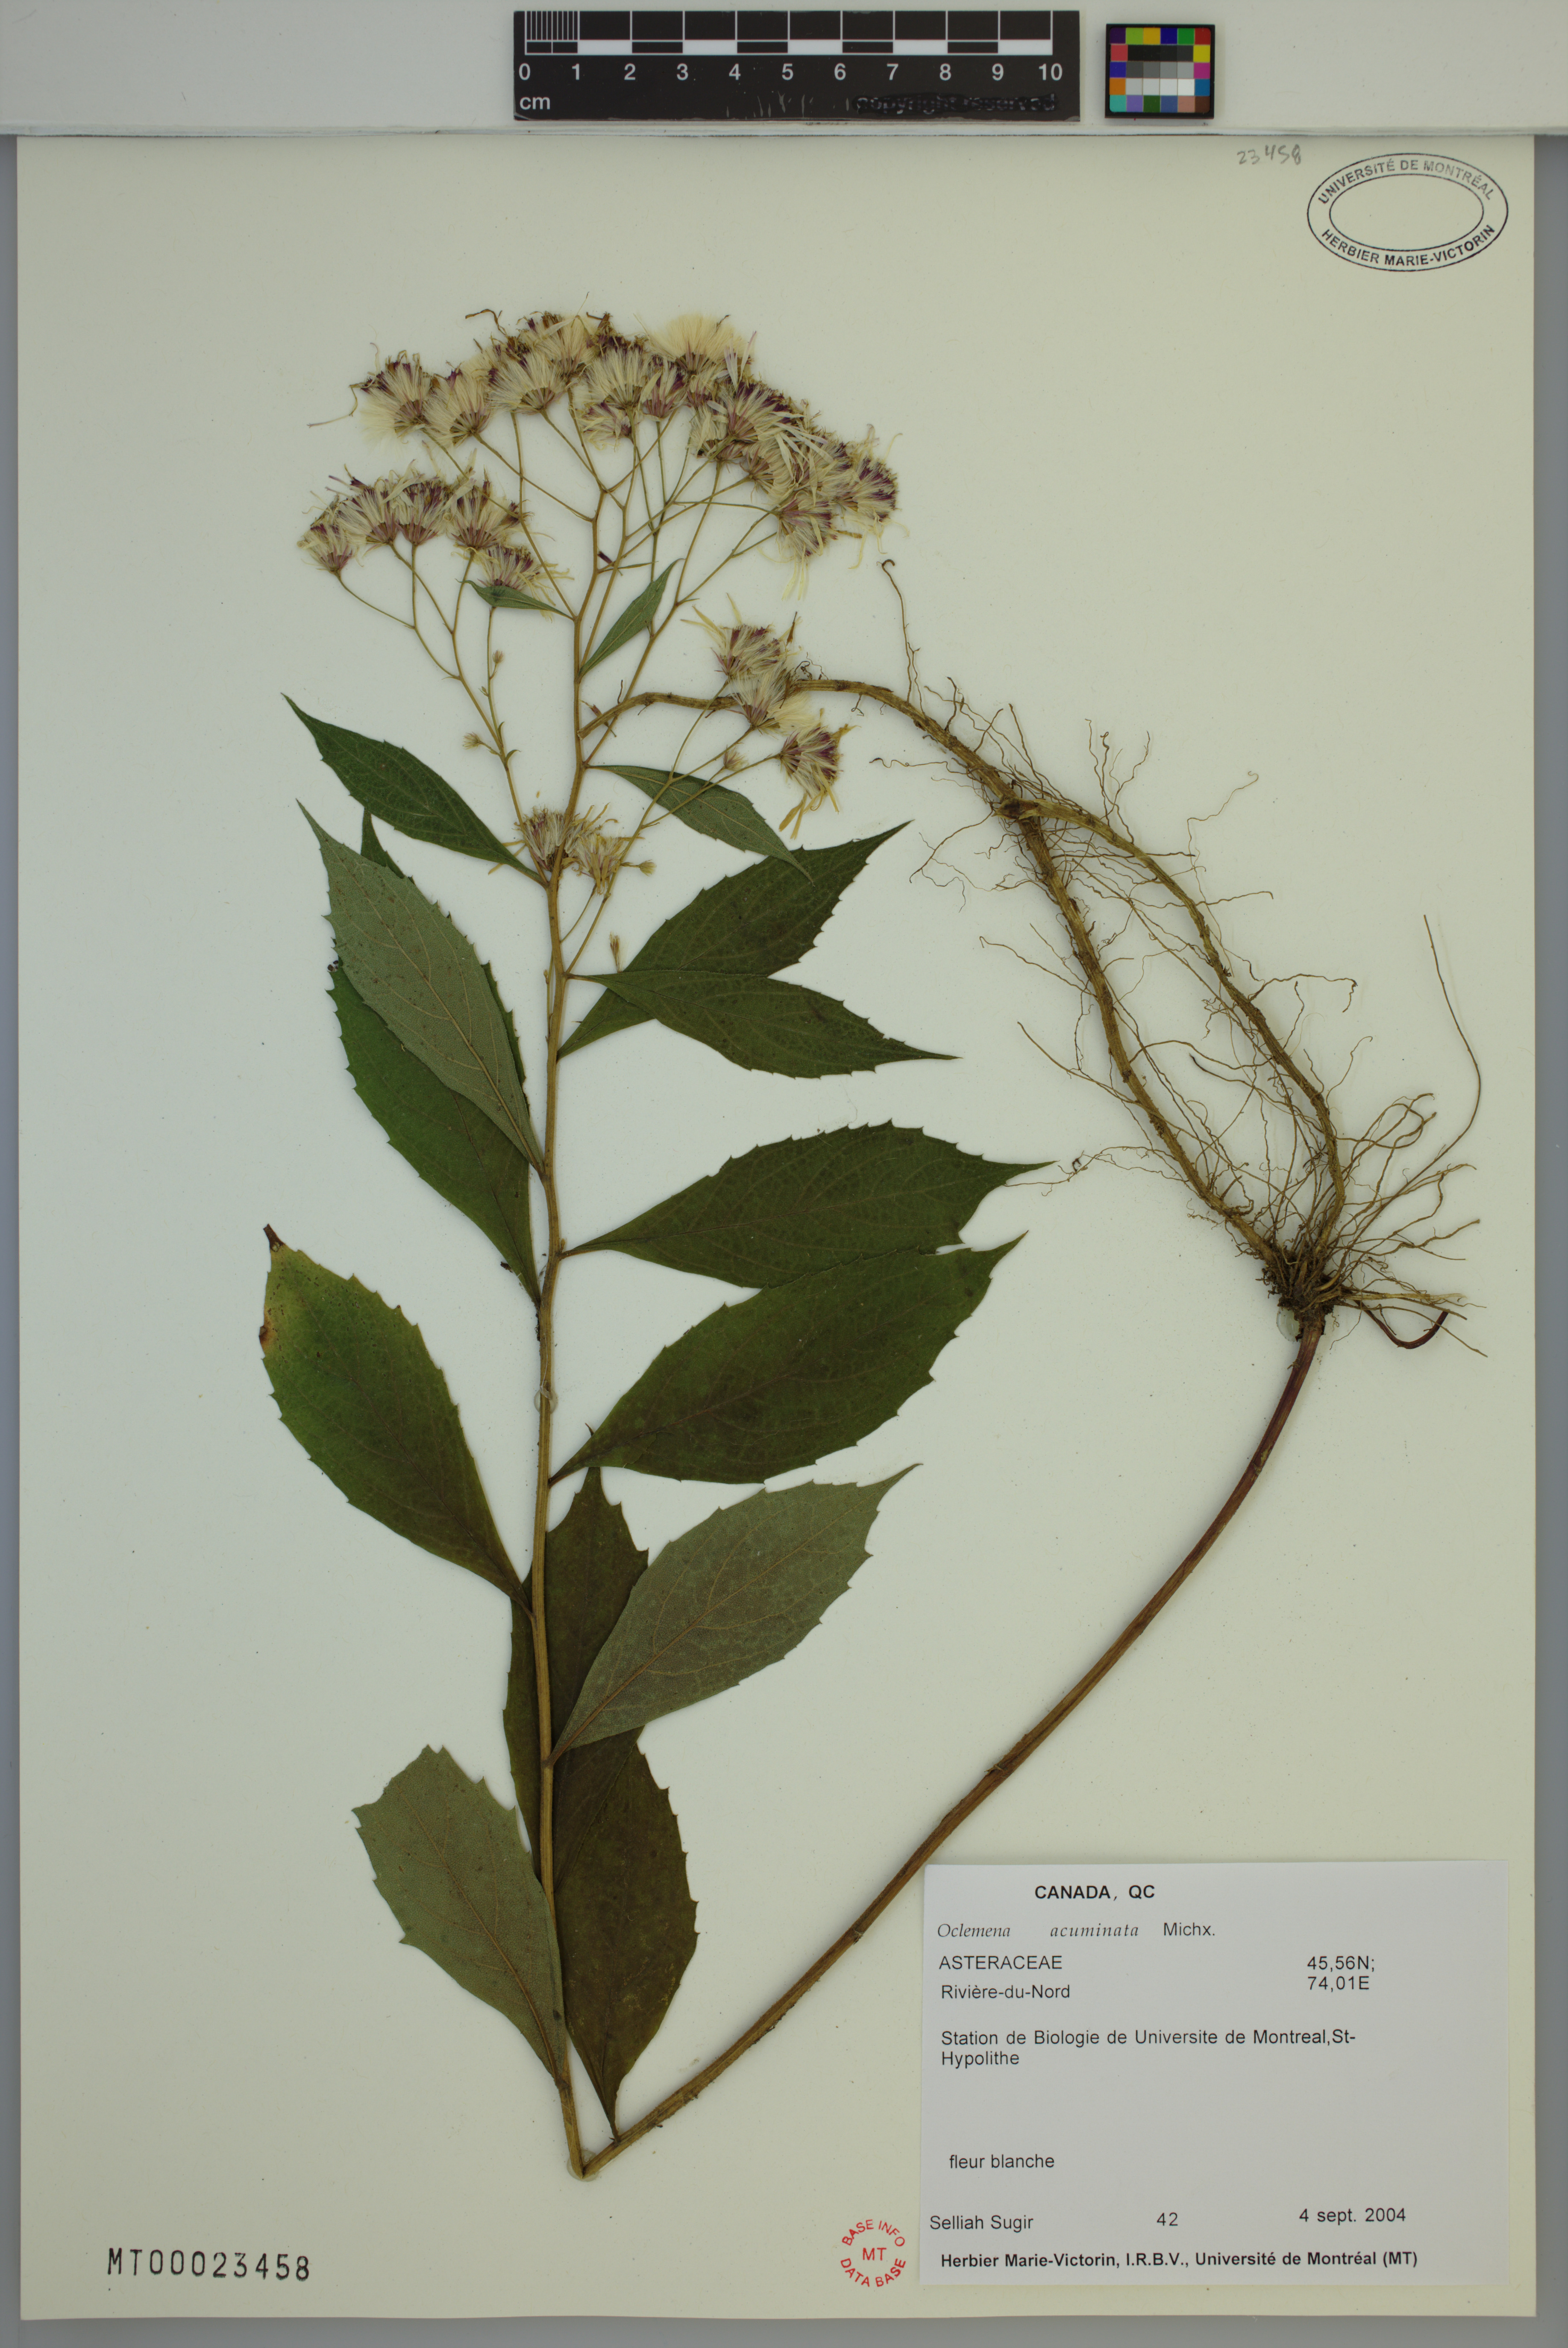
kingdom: Plantae
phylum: Tracheophyta
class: Magnoliopsida
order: Asterales
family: Asteraceae
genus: Oclemena
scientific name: Oclemena acuminata
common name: Mountain aster
